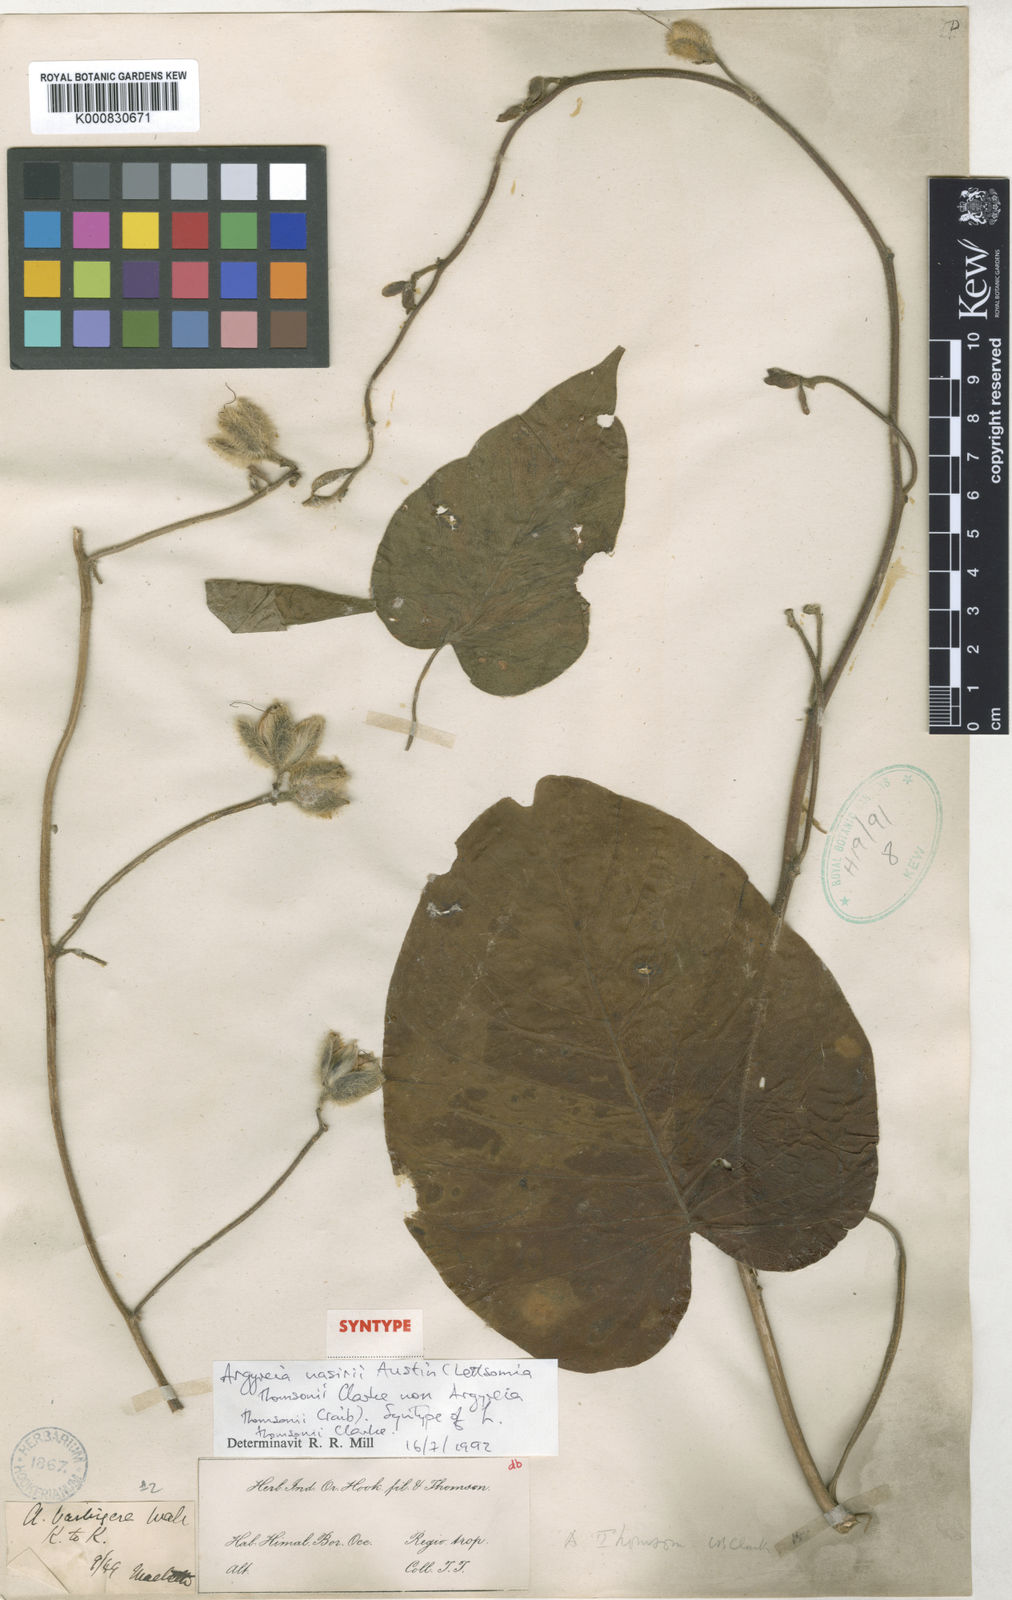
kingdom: Plantae
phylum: Tracheophyta
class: Magnoliopsida
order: Solanales
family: Convolvulaceae
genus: Argyreia
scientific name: Argyreia thomsonii
